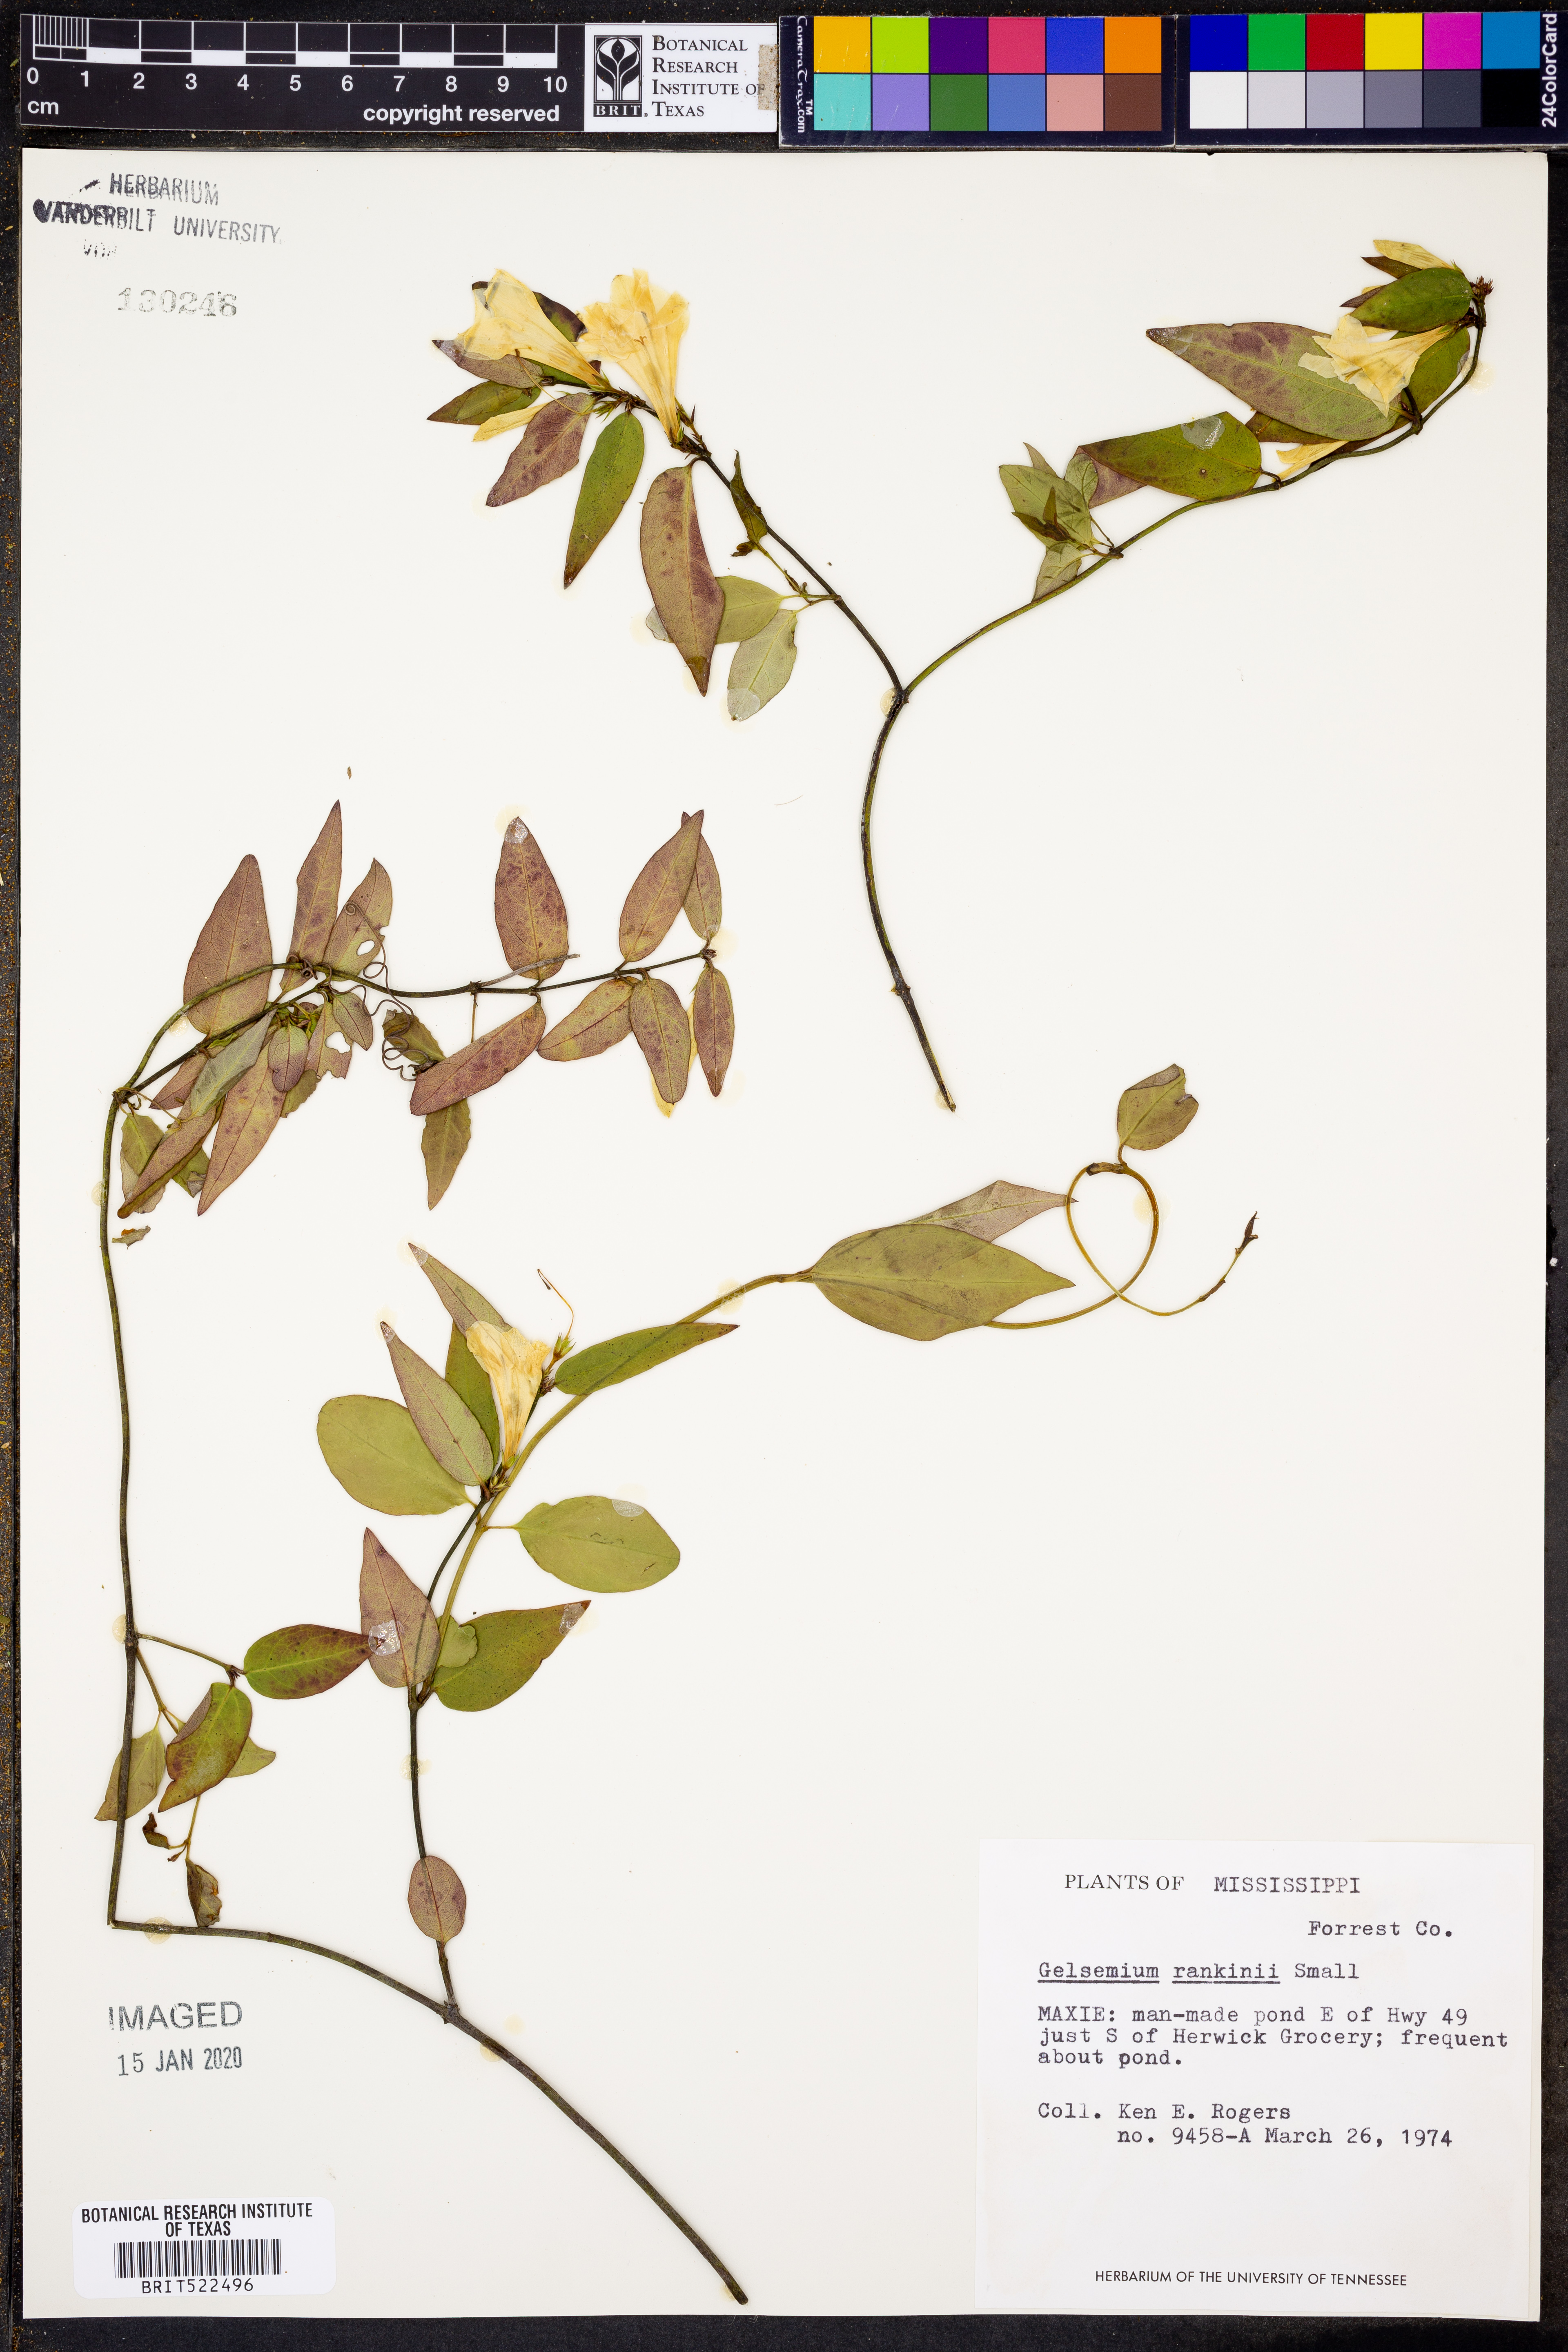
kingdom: Plantae
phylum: Tracheophyta
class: Magnoliopsida
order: Gentianales
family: Gelsemiaceae
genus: Gelsemium
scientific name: Gelsemium rankinii
